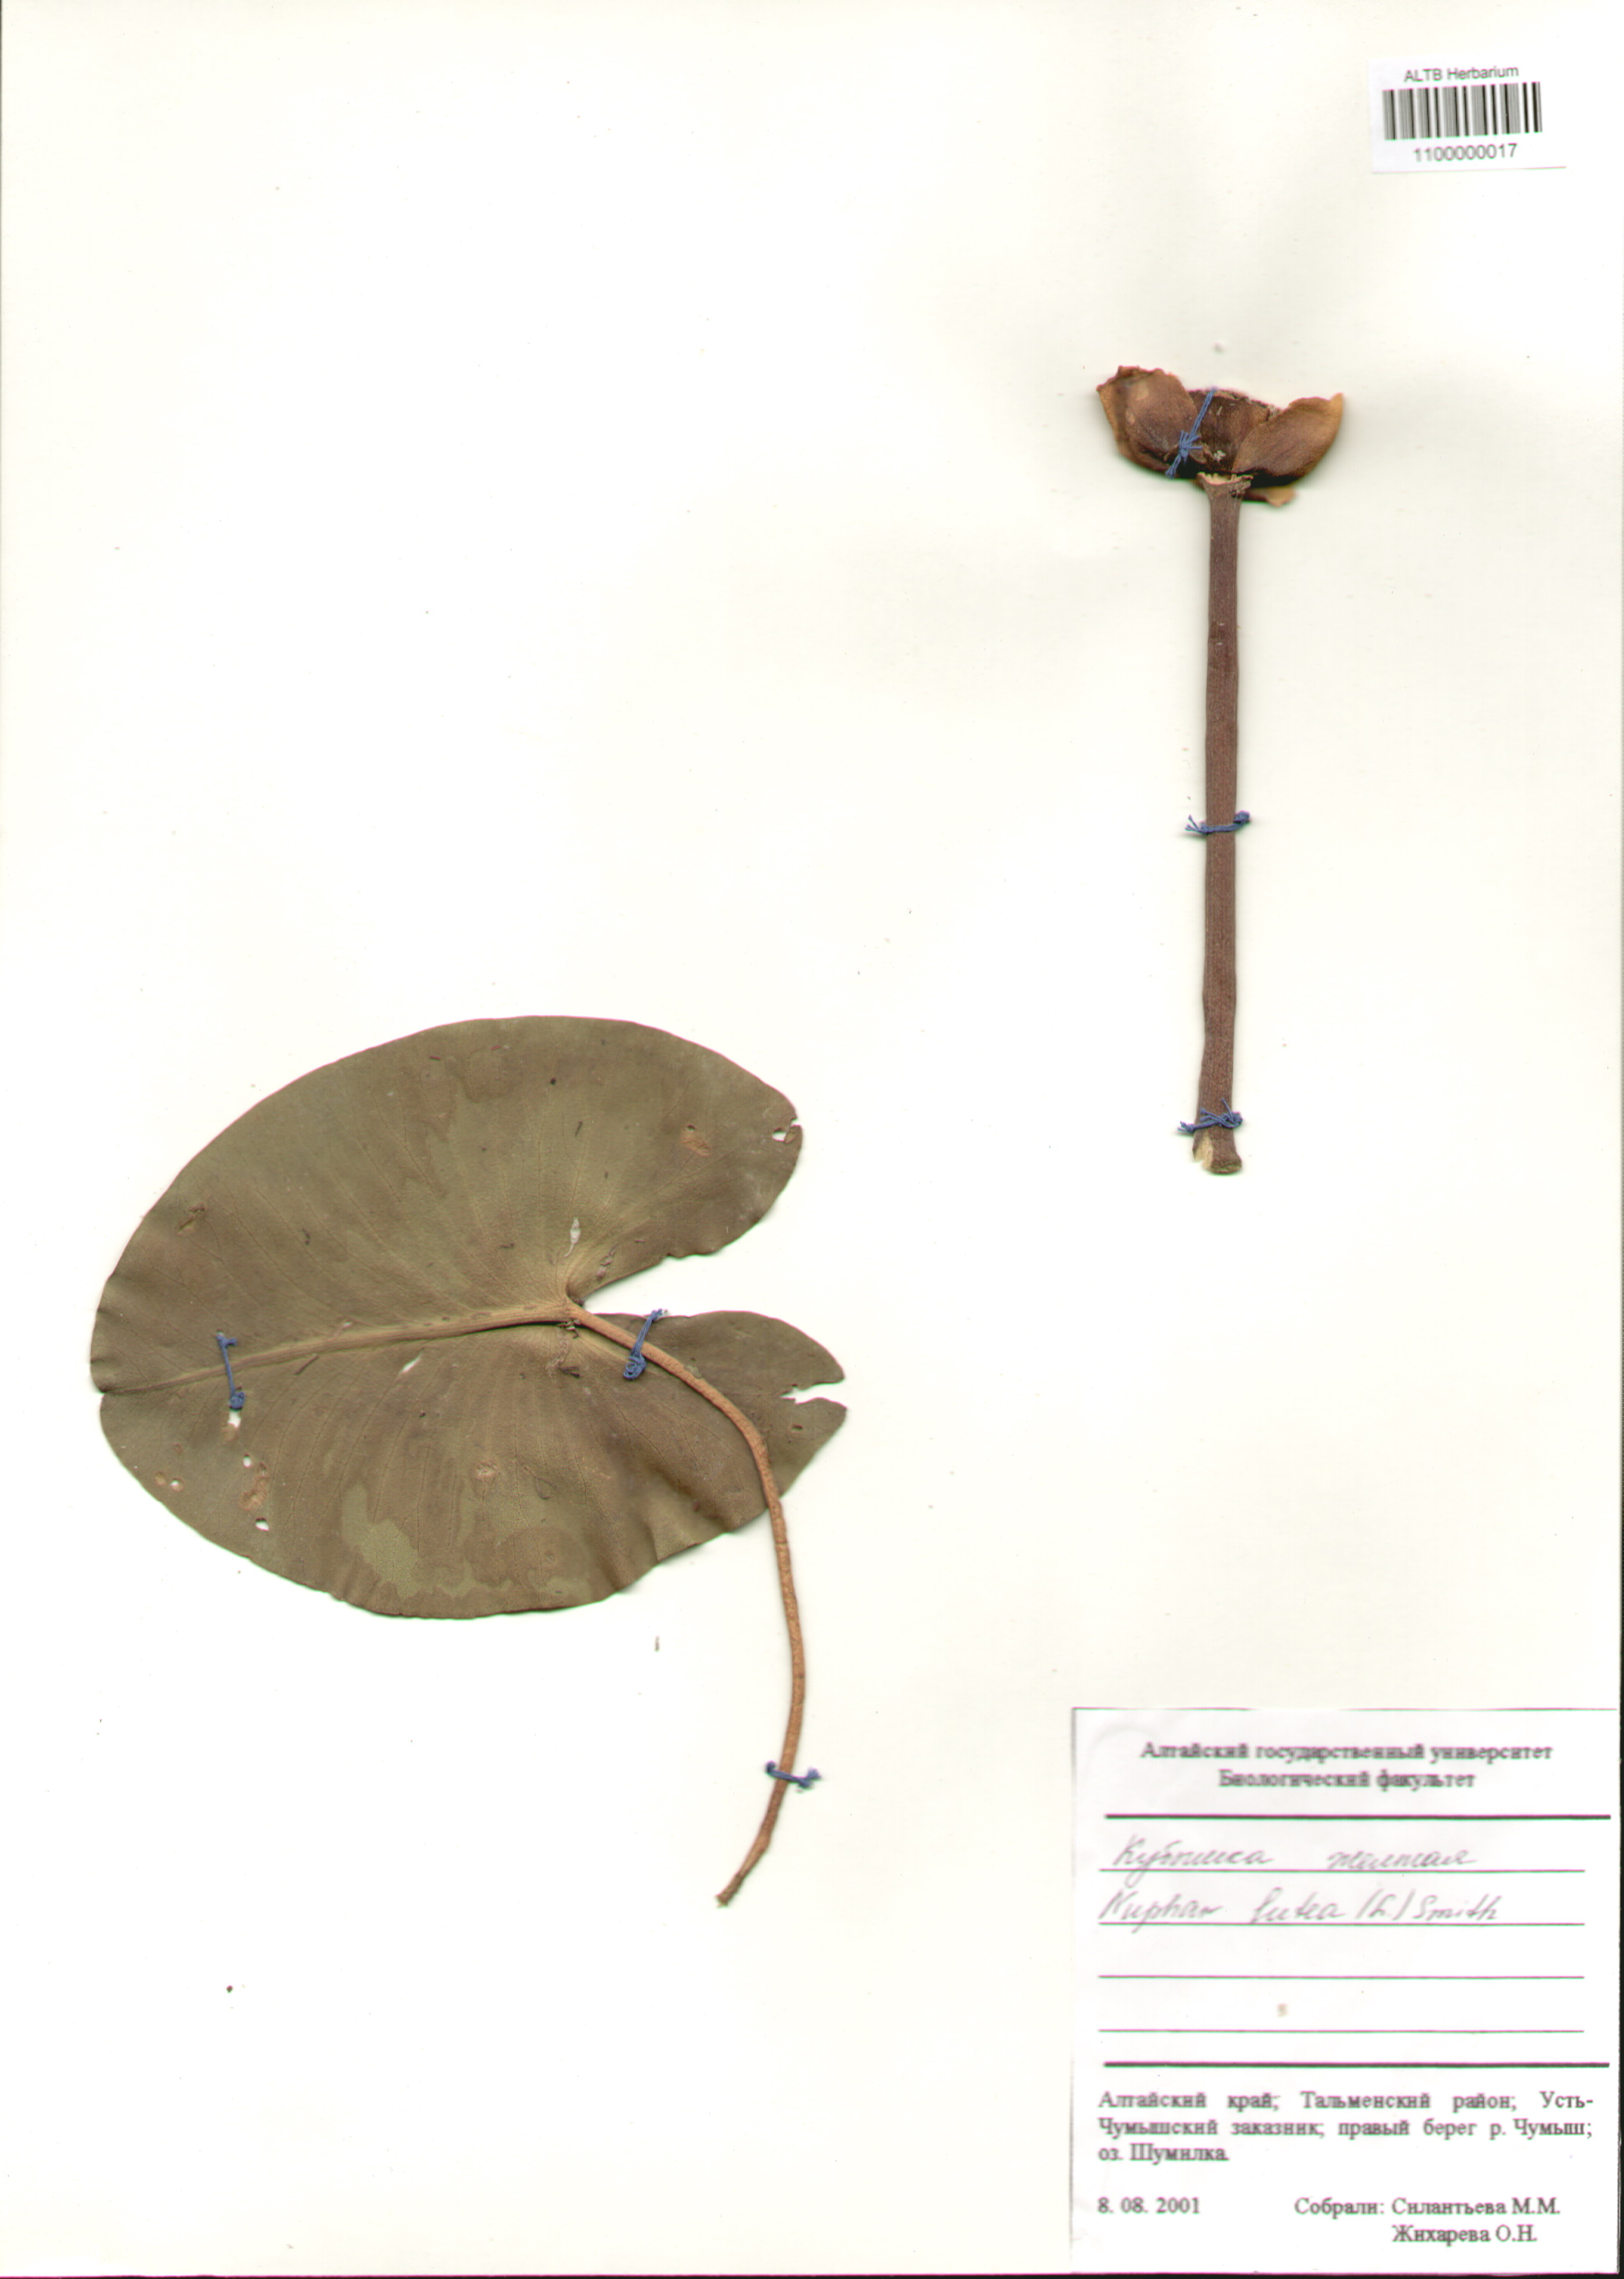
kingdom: Plantae
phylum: Tracheophyta
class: Magnoliopsida
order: Nymphaeales
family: Nymphaeaceae
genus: Nuphar
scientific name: Nuphar lutea
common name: Yellow water-lily
